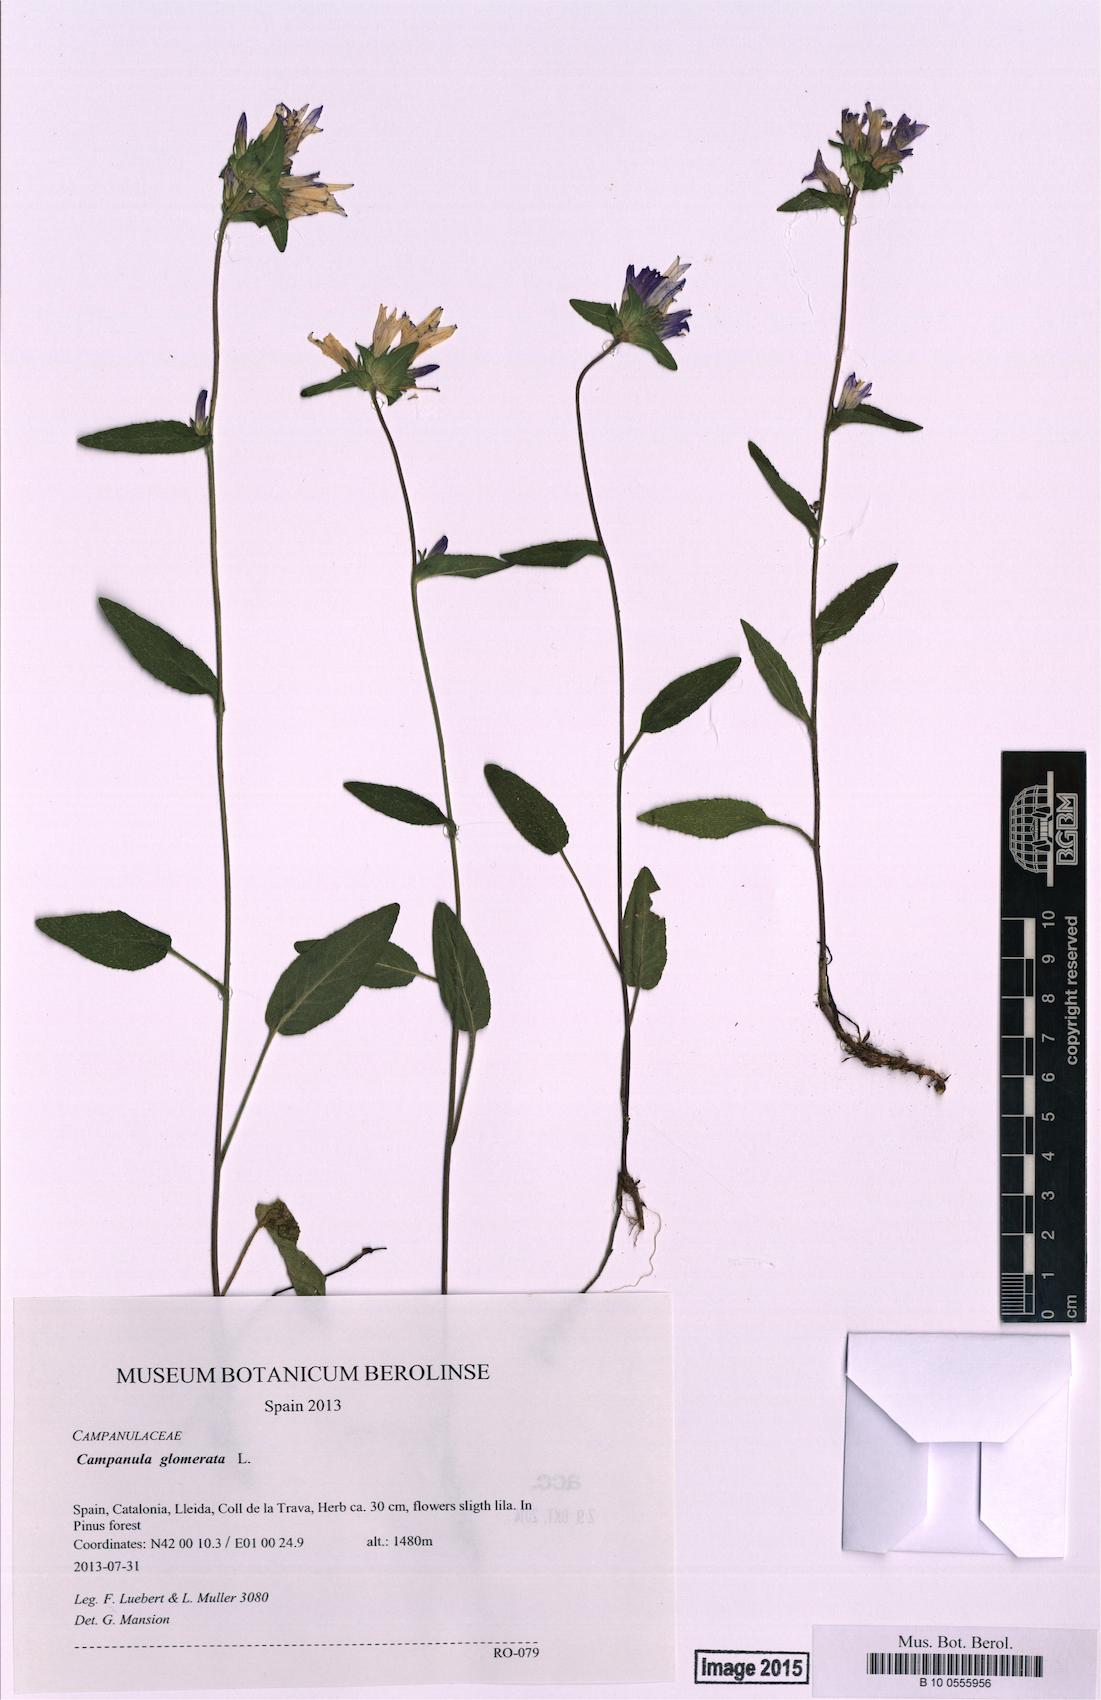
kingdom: Plantae
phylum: Tracheophyta
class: Magnoliopsida
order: Asterales
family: Campanulaceae
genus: Campanula
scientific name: Campanula glomerata
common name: Clustered bellflower
